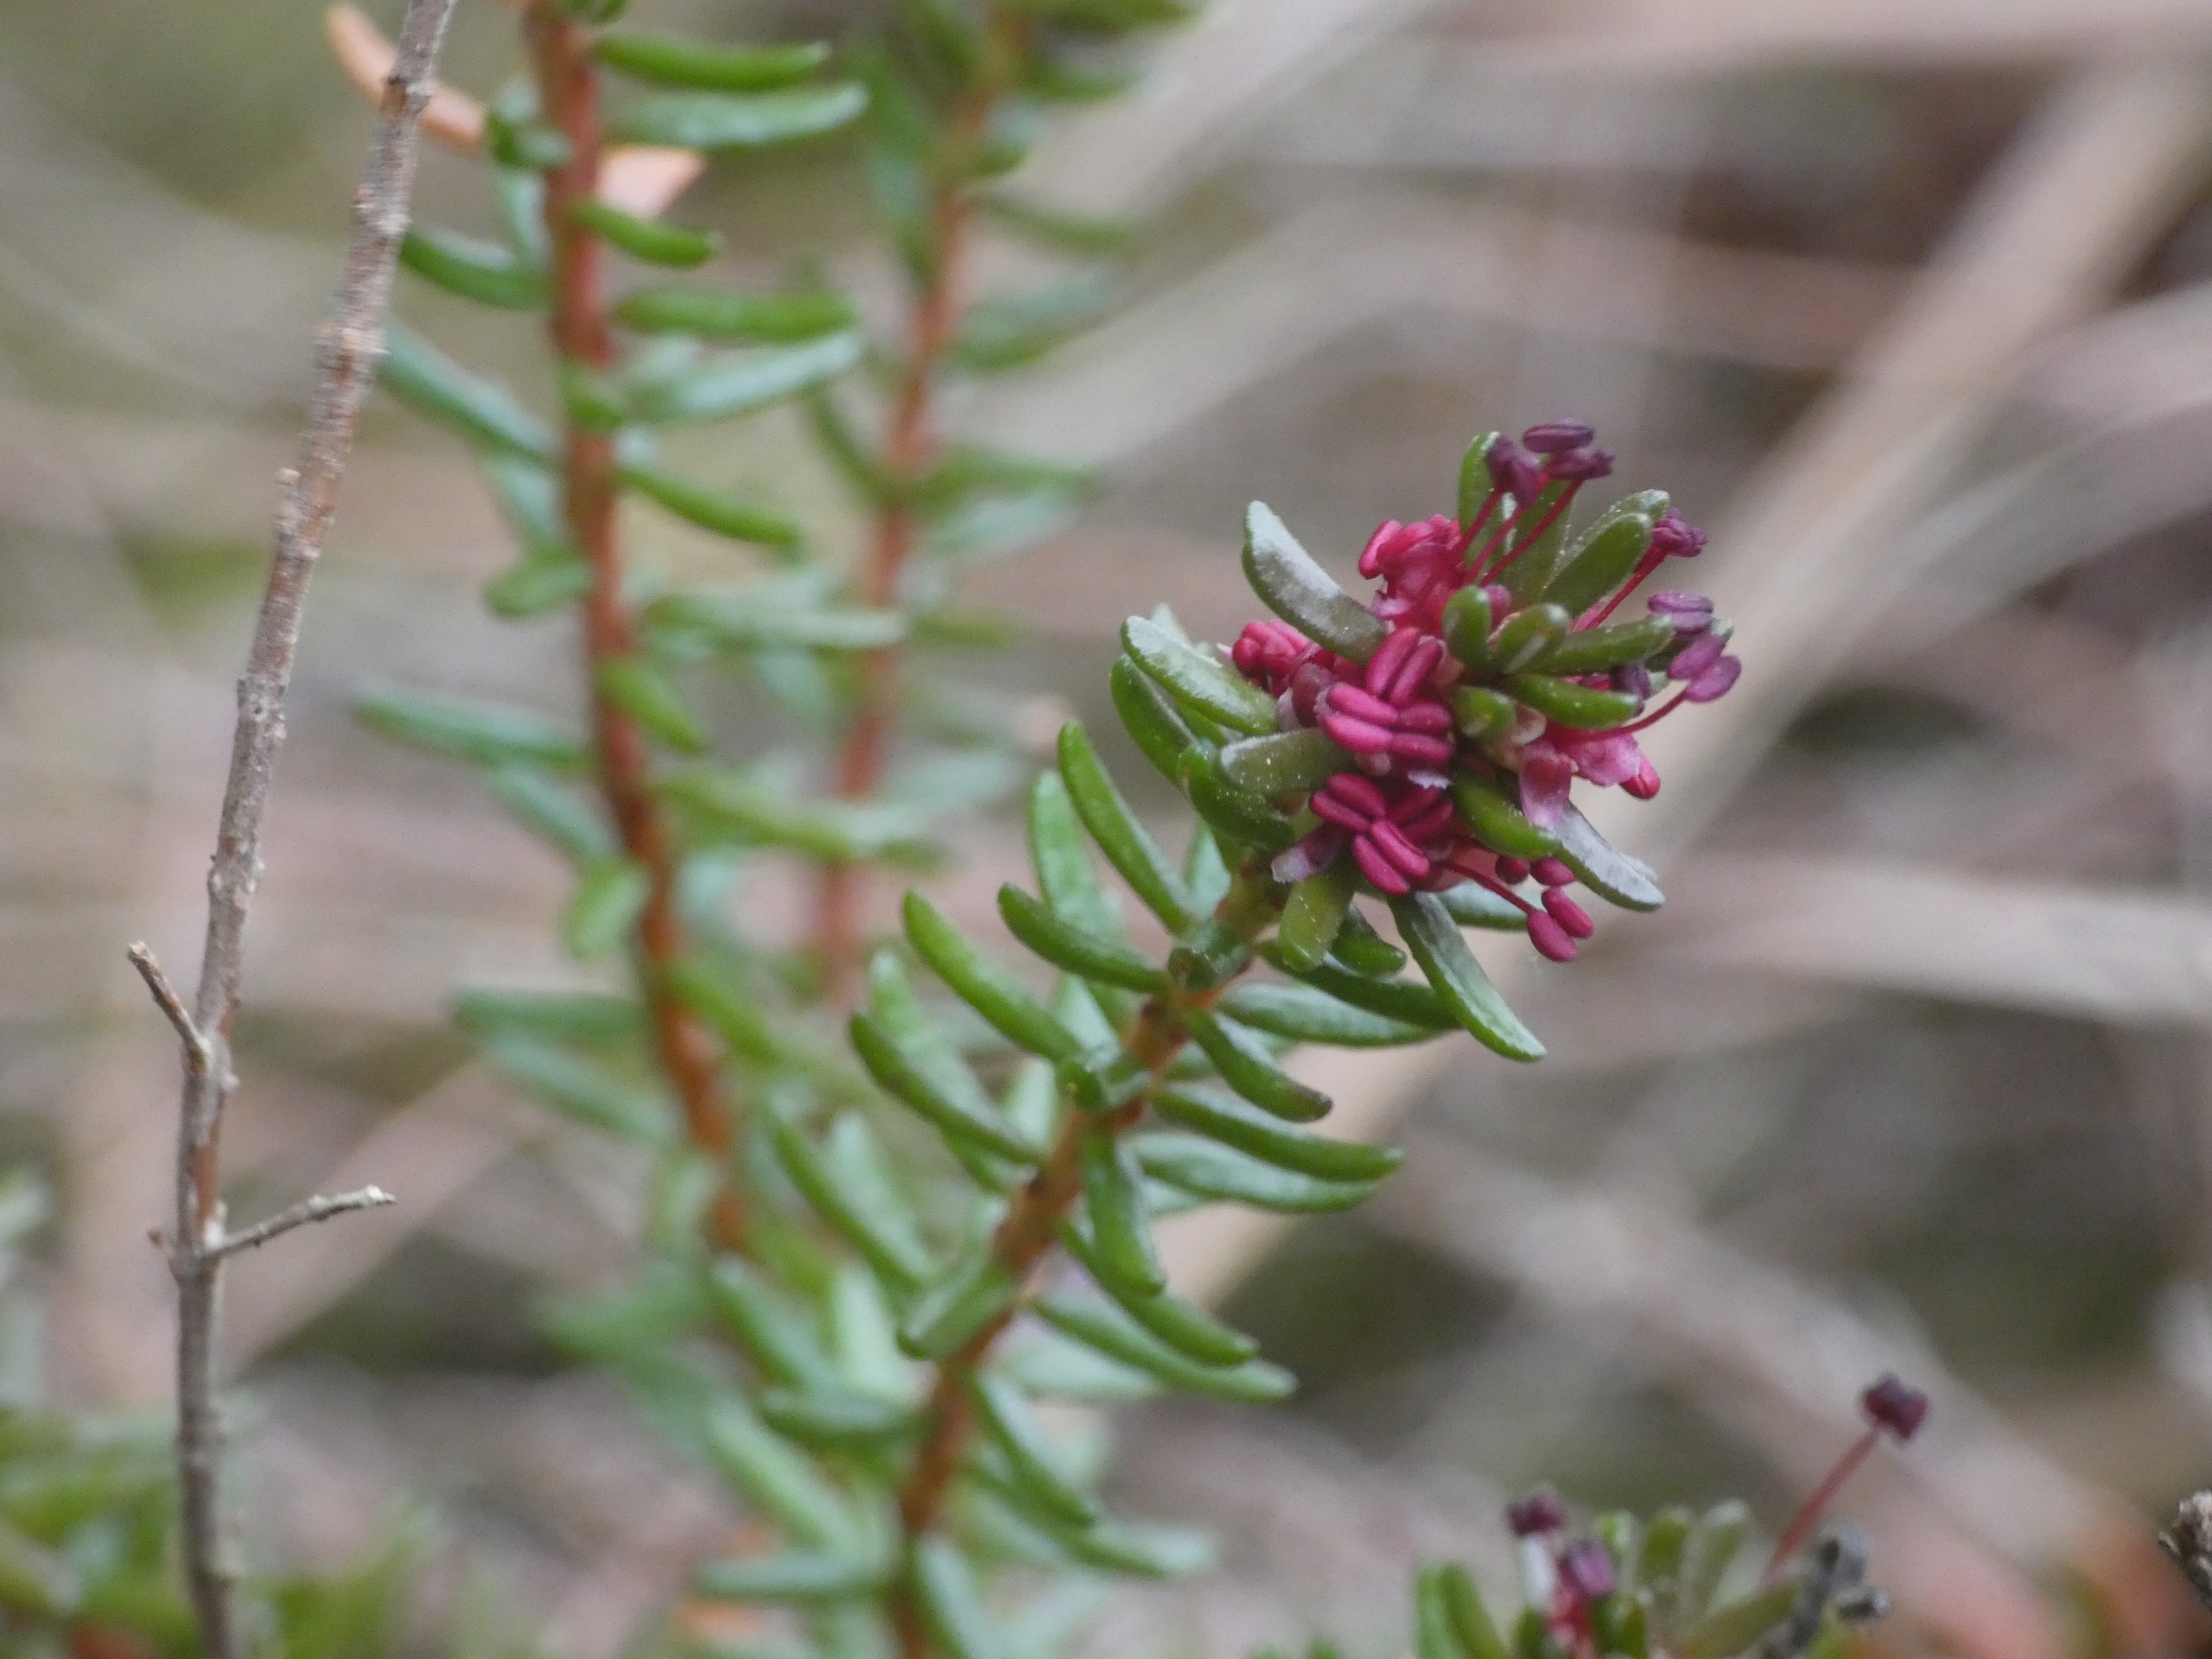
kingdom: Plantae
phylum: Tracheophyta
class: Magnoliopsida
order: Ericales
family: Ericaceae
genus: Empetrum
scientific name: Empetrum nigrum
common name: Revling
